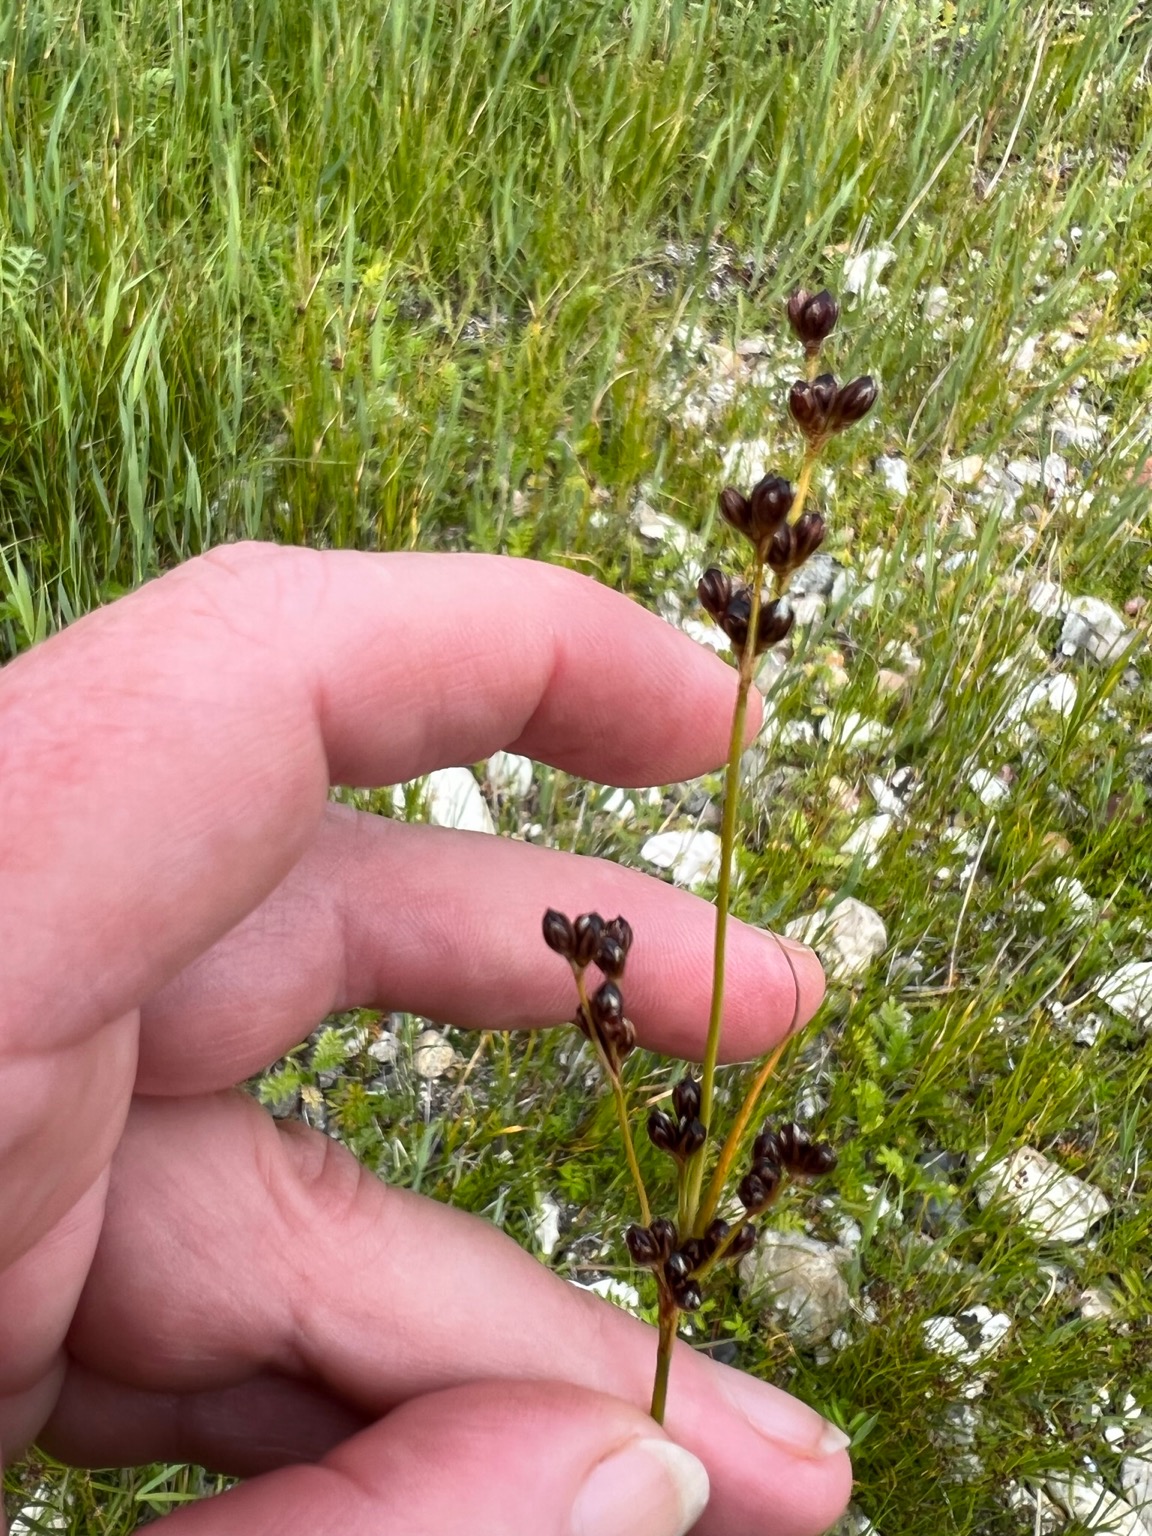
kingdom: Plantae
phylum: Tracheophyta
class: Liliopsida
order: Poales
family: Juncaceae
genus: Juncus
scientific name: Juncus gerardi
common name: Harril
